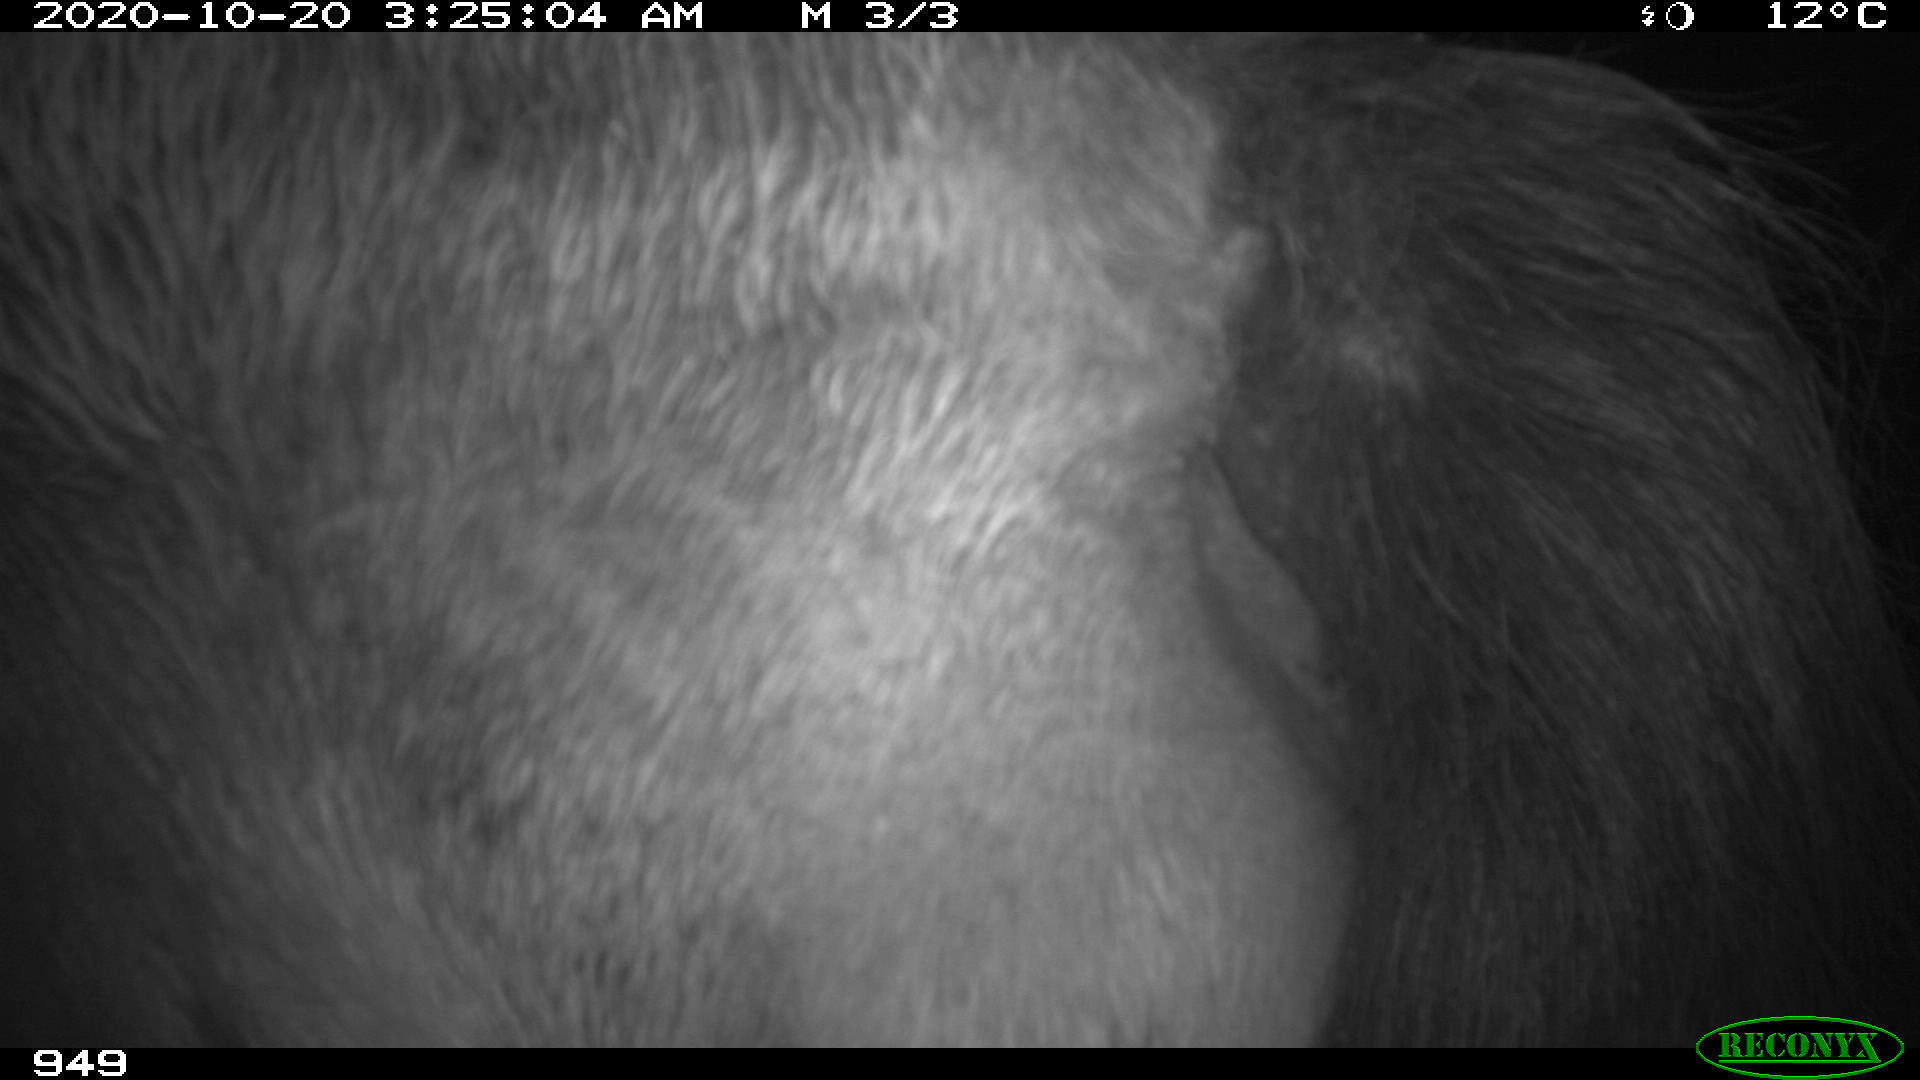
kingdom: Animalia
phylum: Chordata
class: Mammalia
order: Perissodactyla
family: Equidae
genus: Equus
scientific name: Equus caballus
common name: Horse
